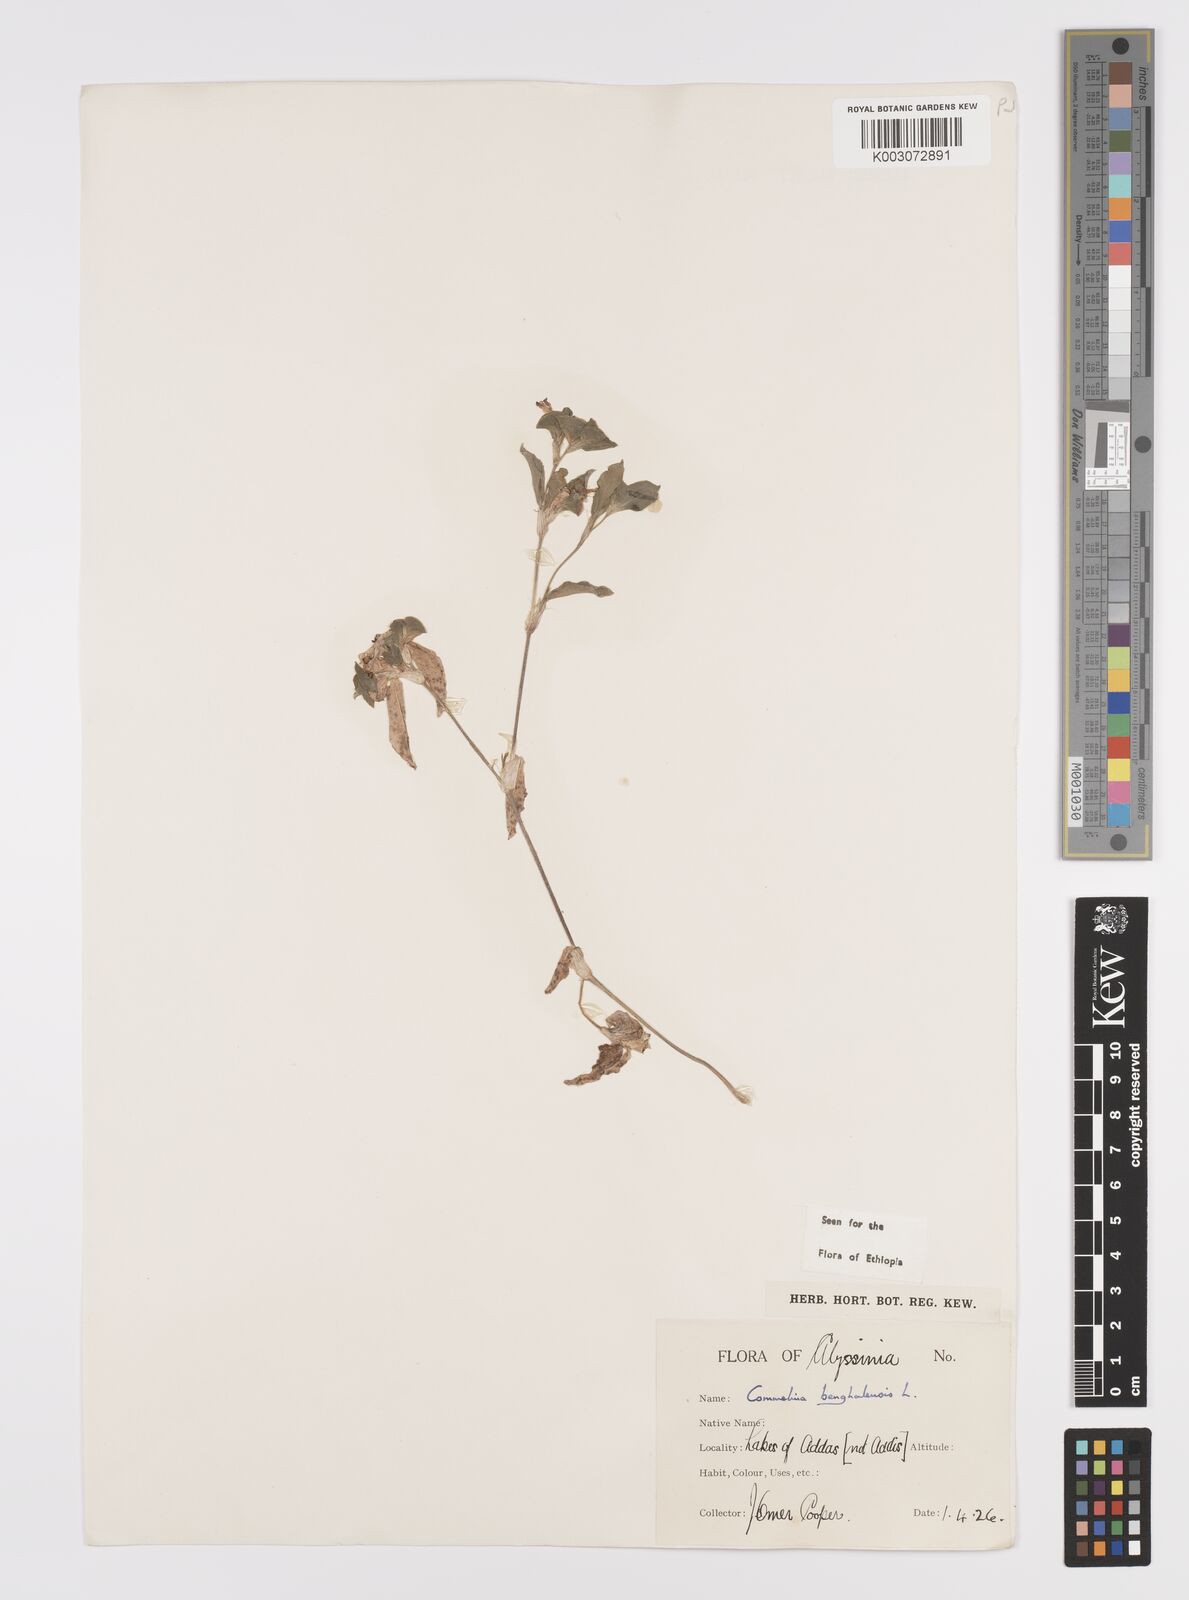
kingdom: Plantae
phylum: Tracheophyta
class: Liliopsida
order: Commelinales
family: Commelinaceae
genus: Commelina
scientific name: Commelina benghalensis
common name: Jio
